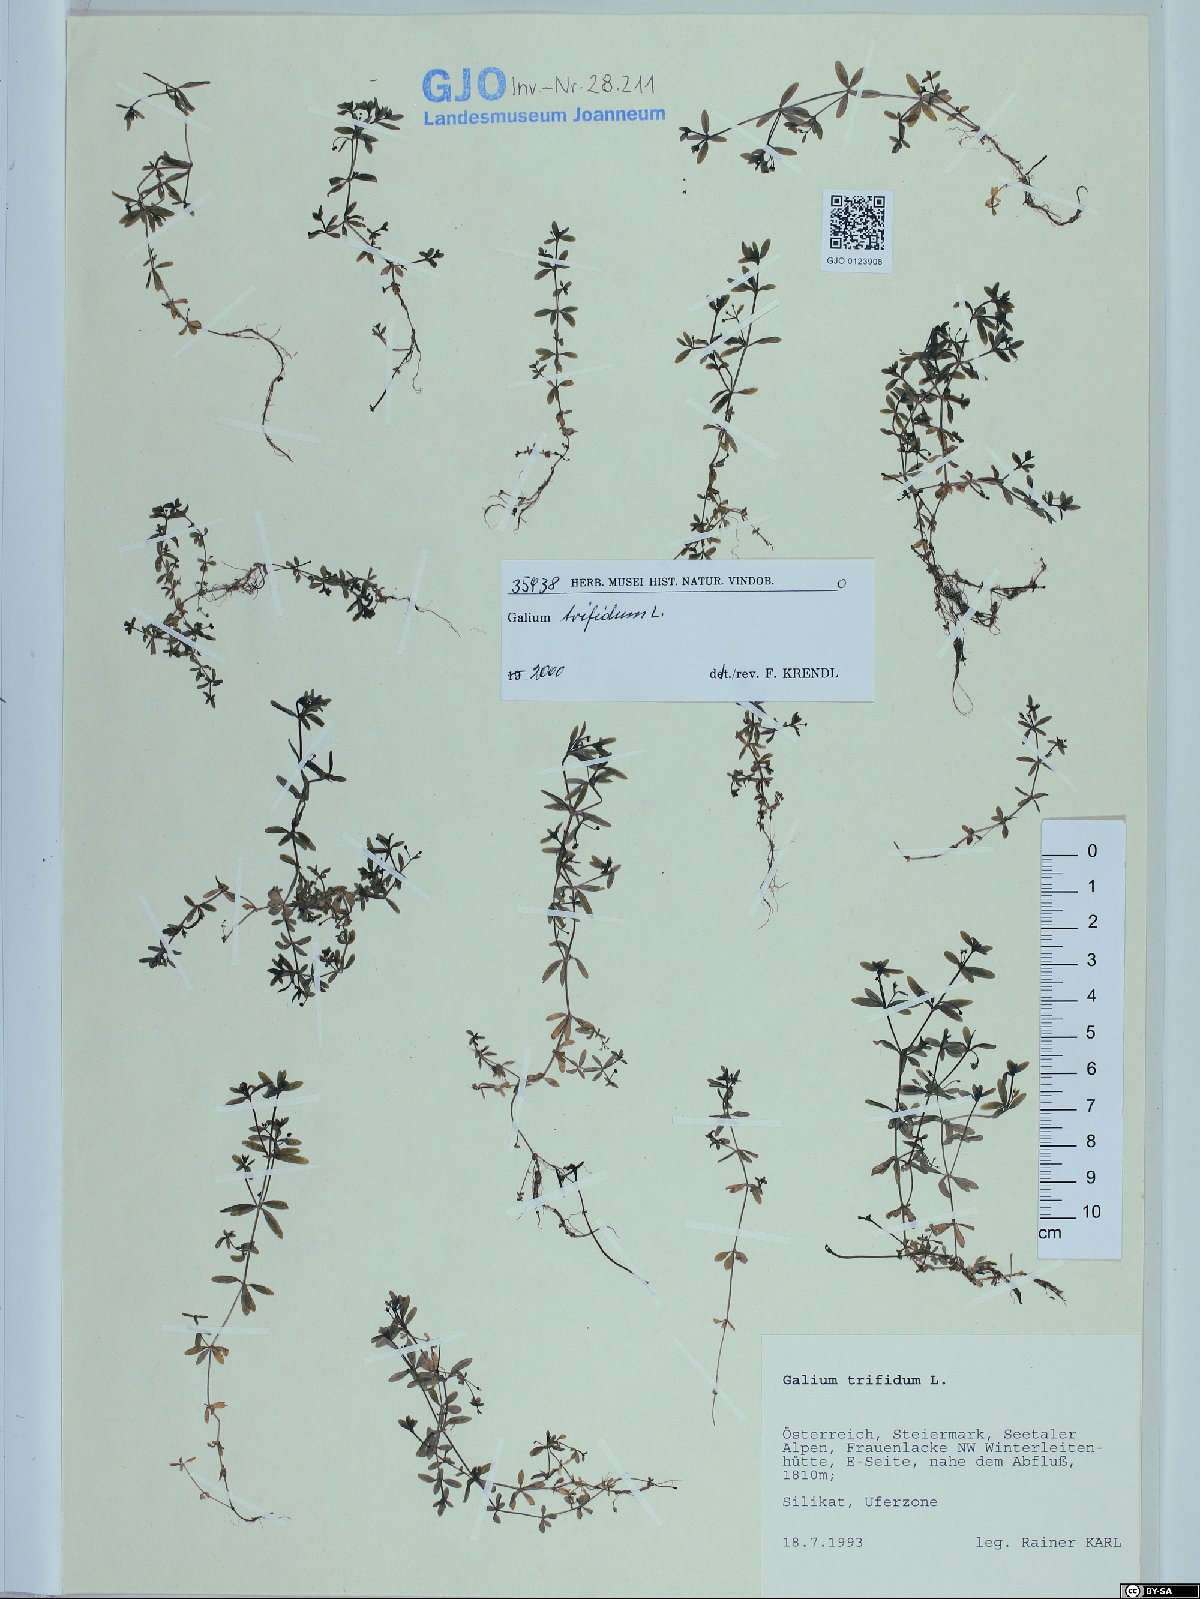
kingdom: Plantae
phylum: Tracheophyta
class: Magnoliopsida
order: Gentianales
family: Rubiaceae
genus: Galium
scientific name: Galium trifidum
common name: Small bedstraw
